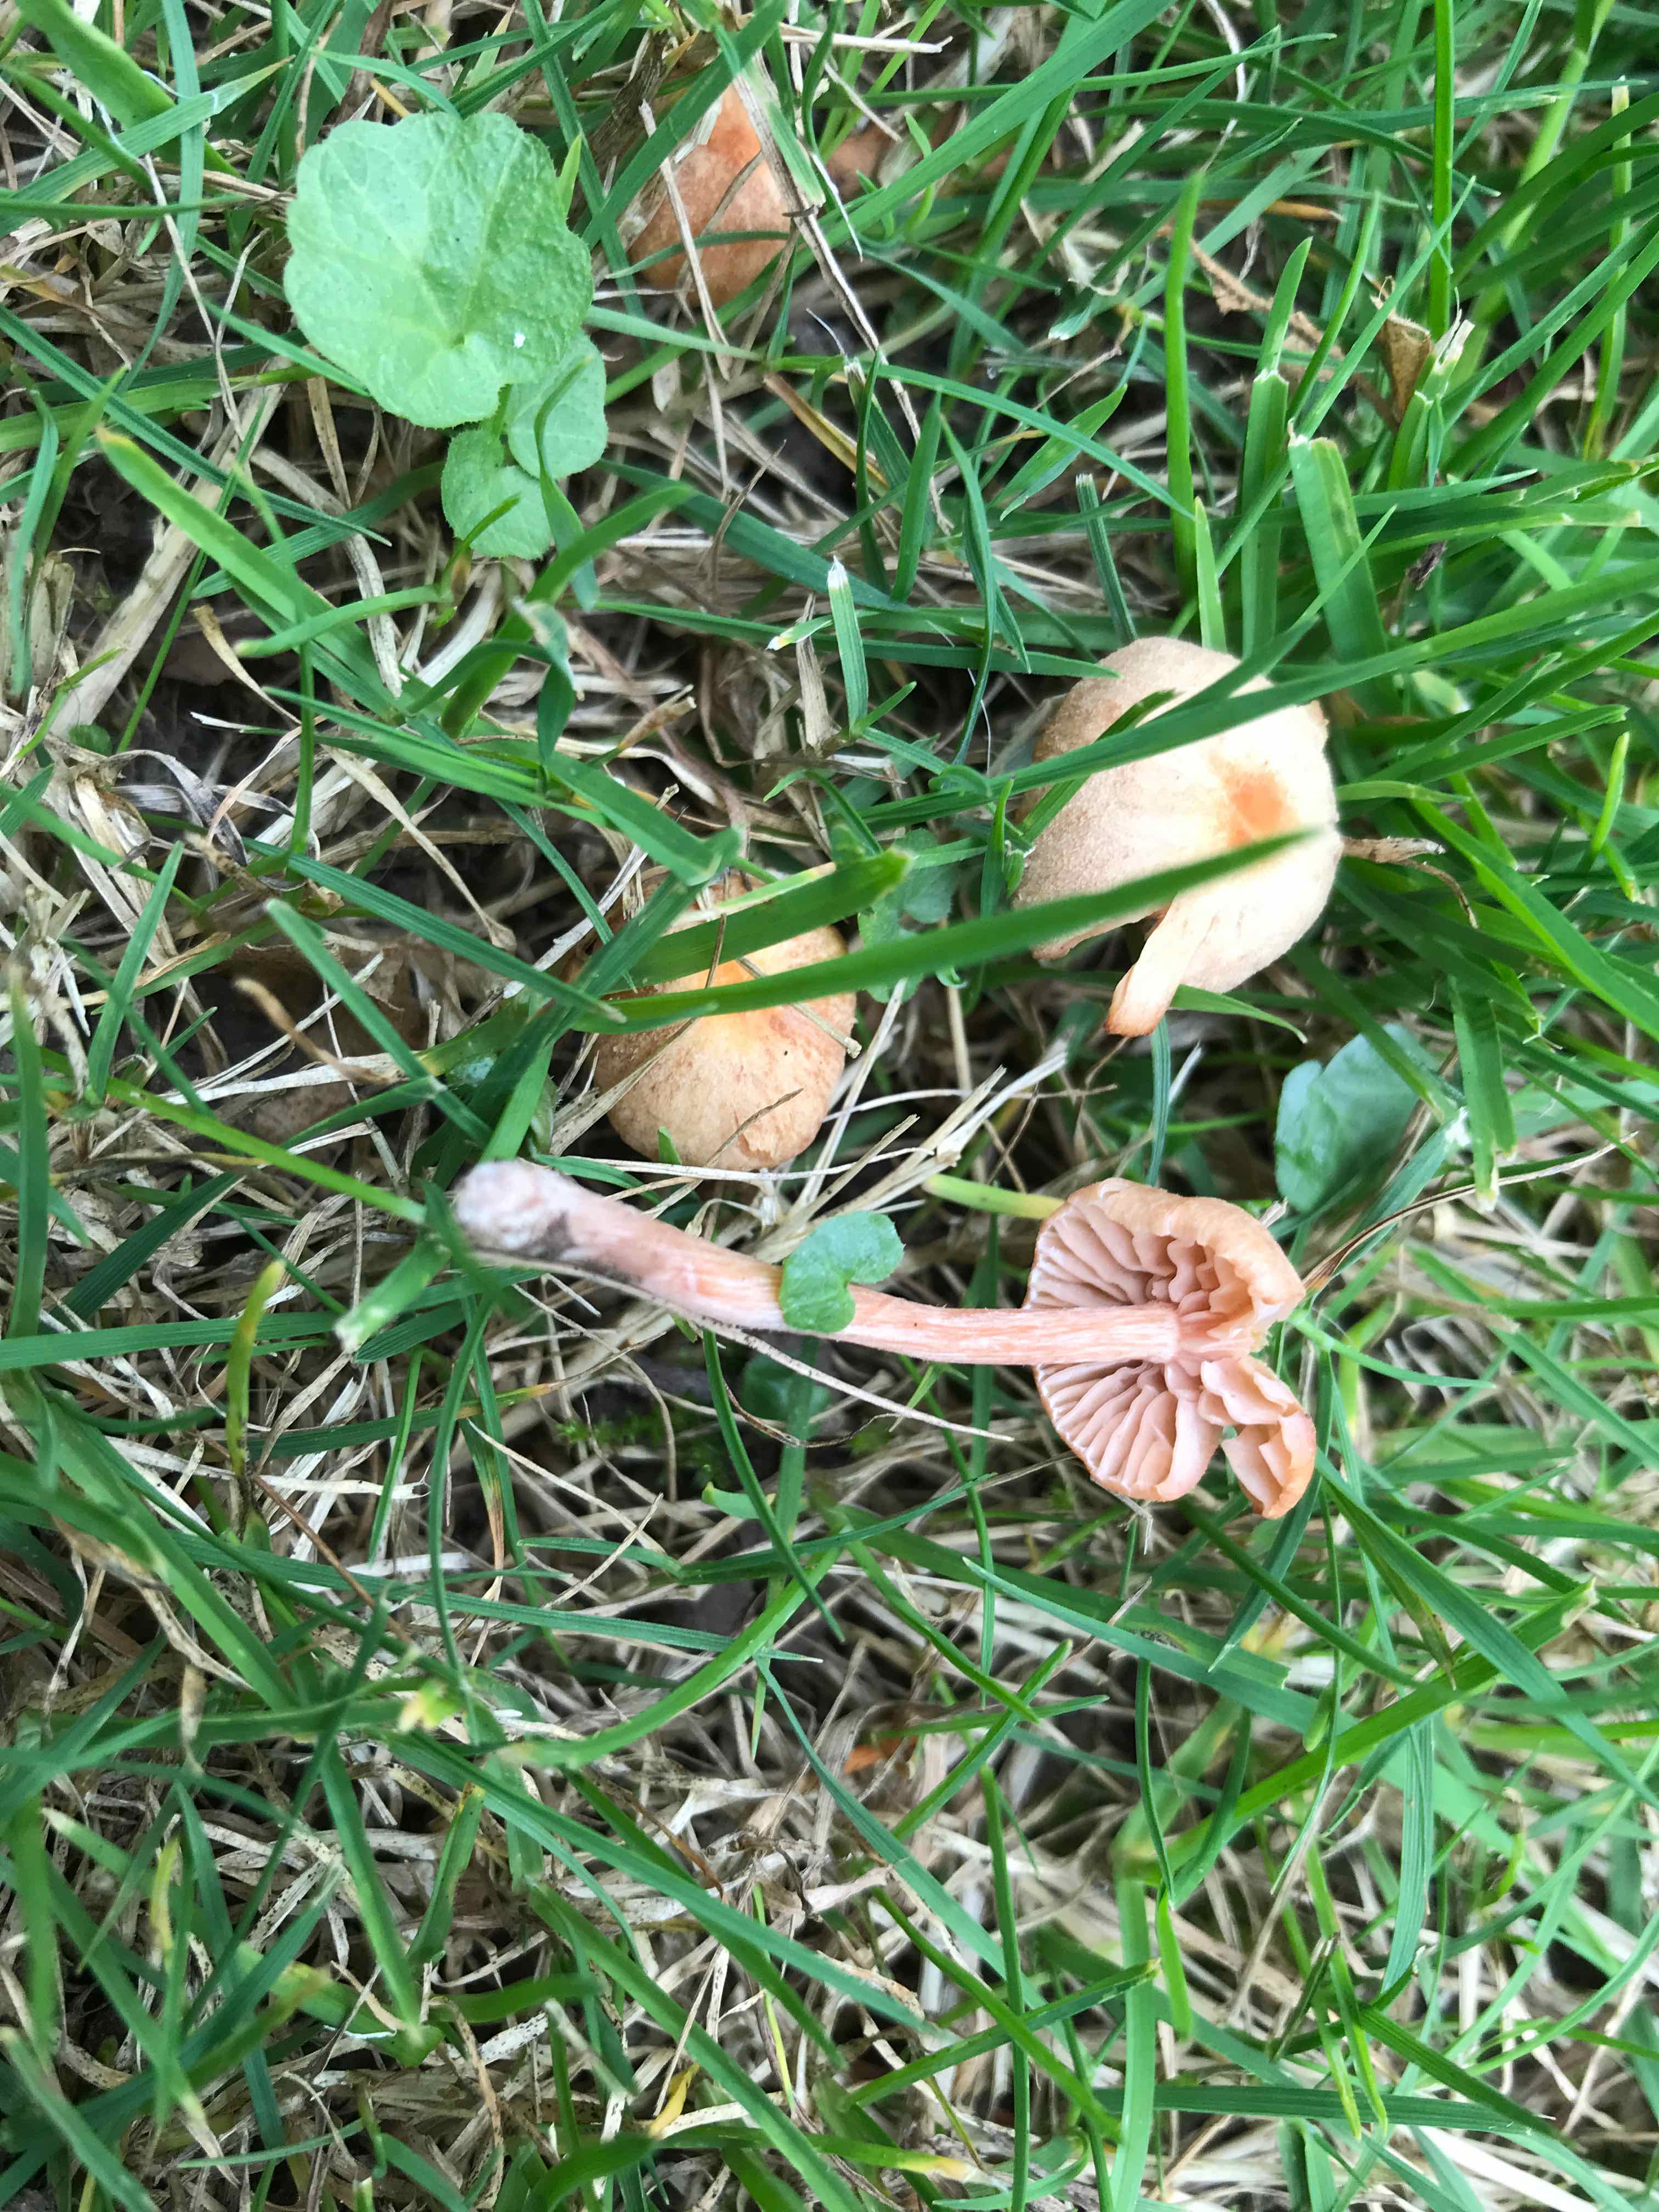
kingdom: Fungi
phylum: Basidiomycota
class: Agaricomycetes
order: Agaricales
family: Hydnangiaceae
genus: Laccaria
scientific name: Laccaria laccata
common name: rød ametysthat
